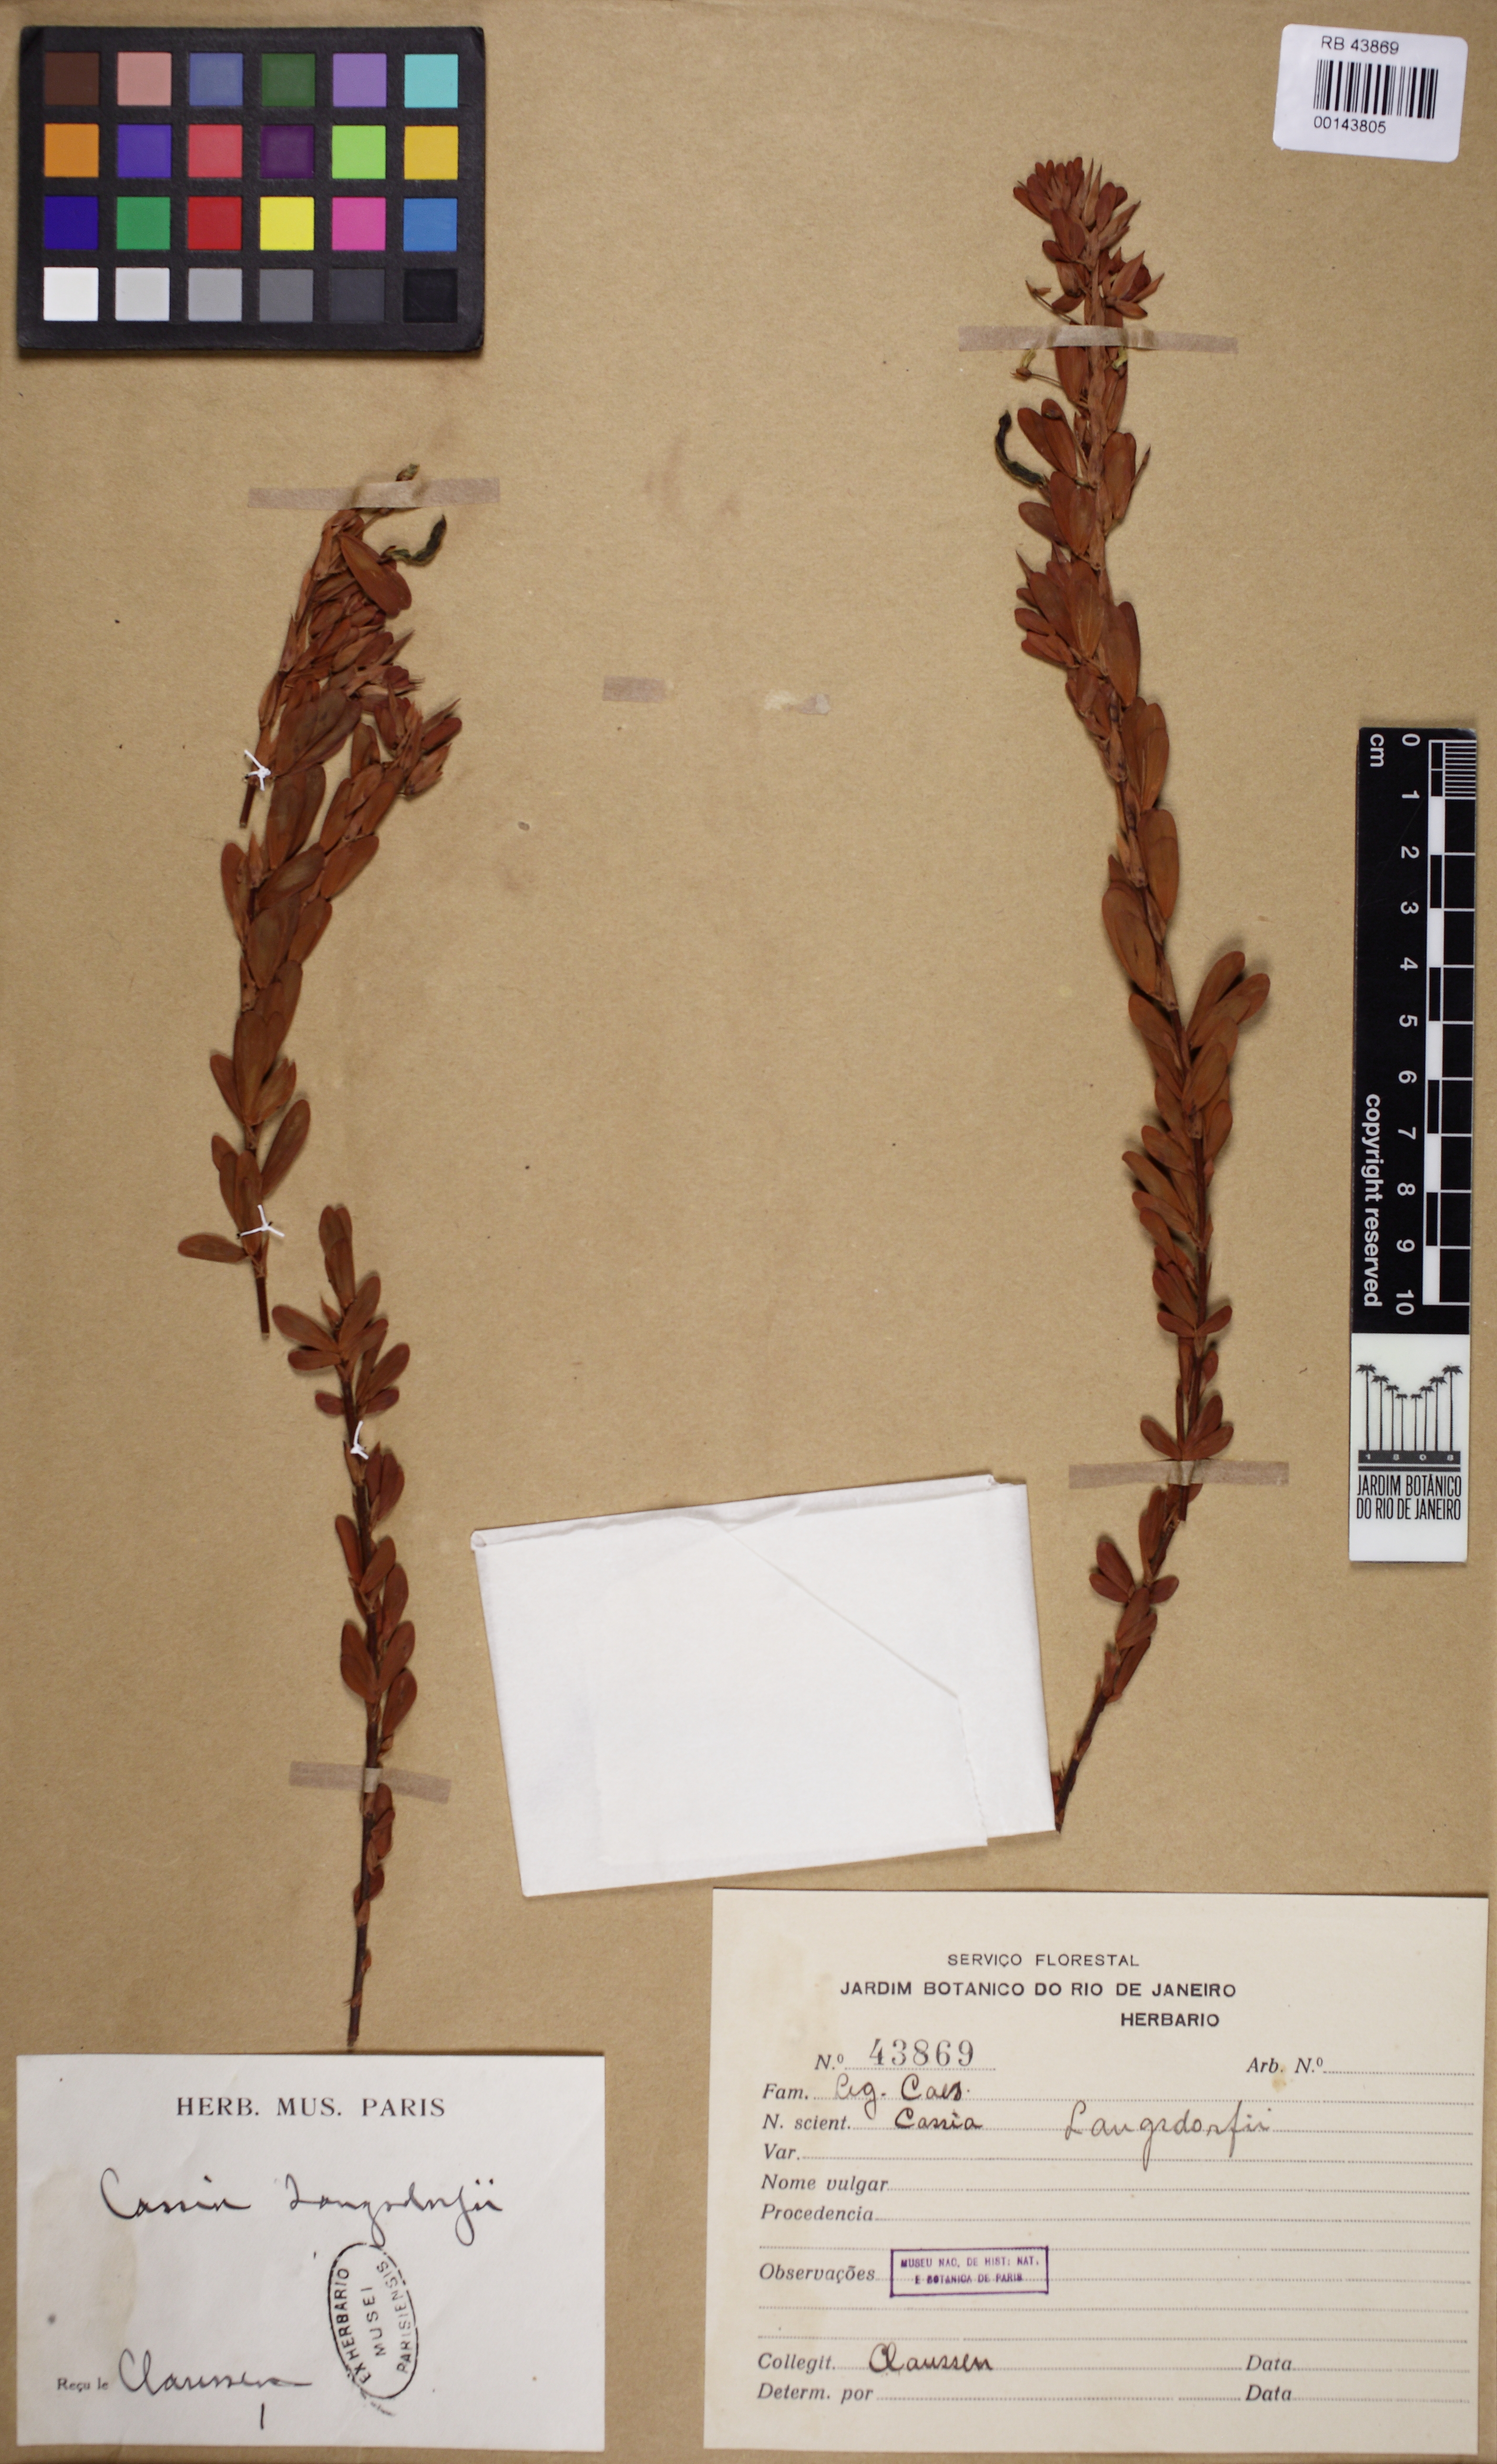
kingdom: Plantae
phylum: Tracheophyta
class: Magnoliopsida
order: Fabales
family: Fabaceae
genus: Chamaecrista
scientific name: Chamaecrista langsdorffii
